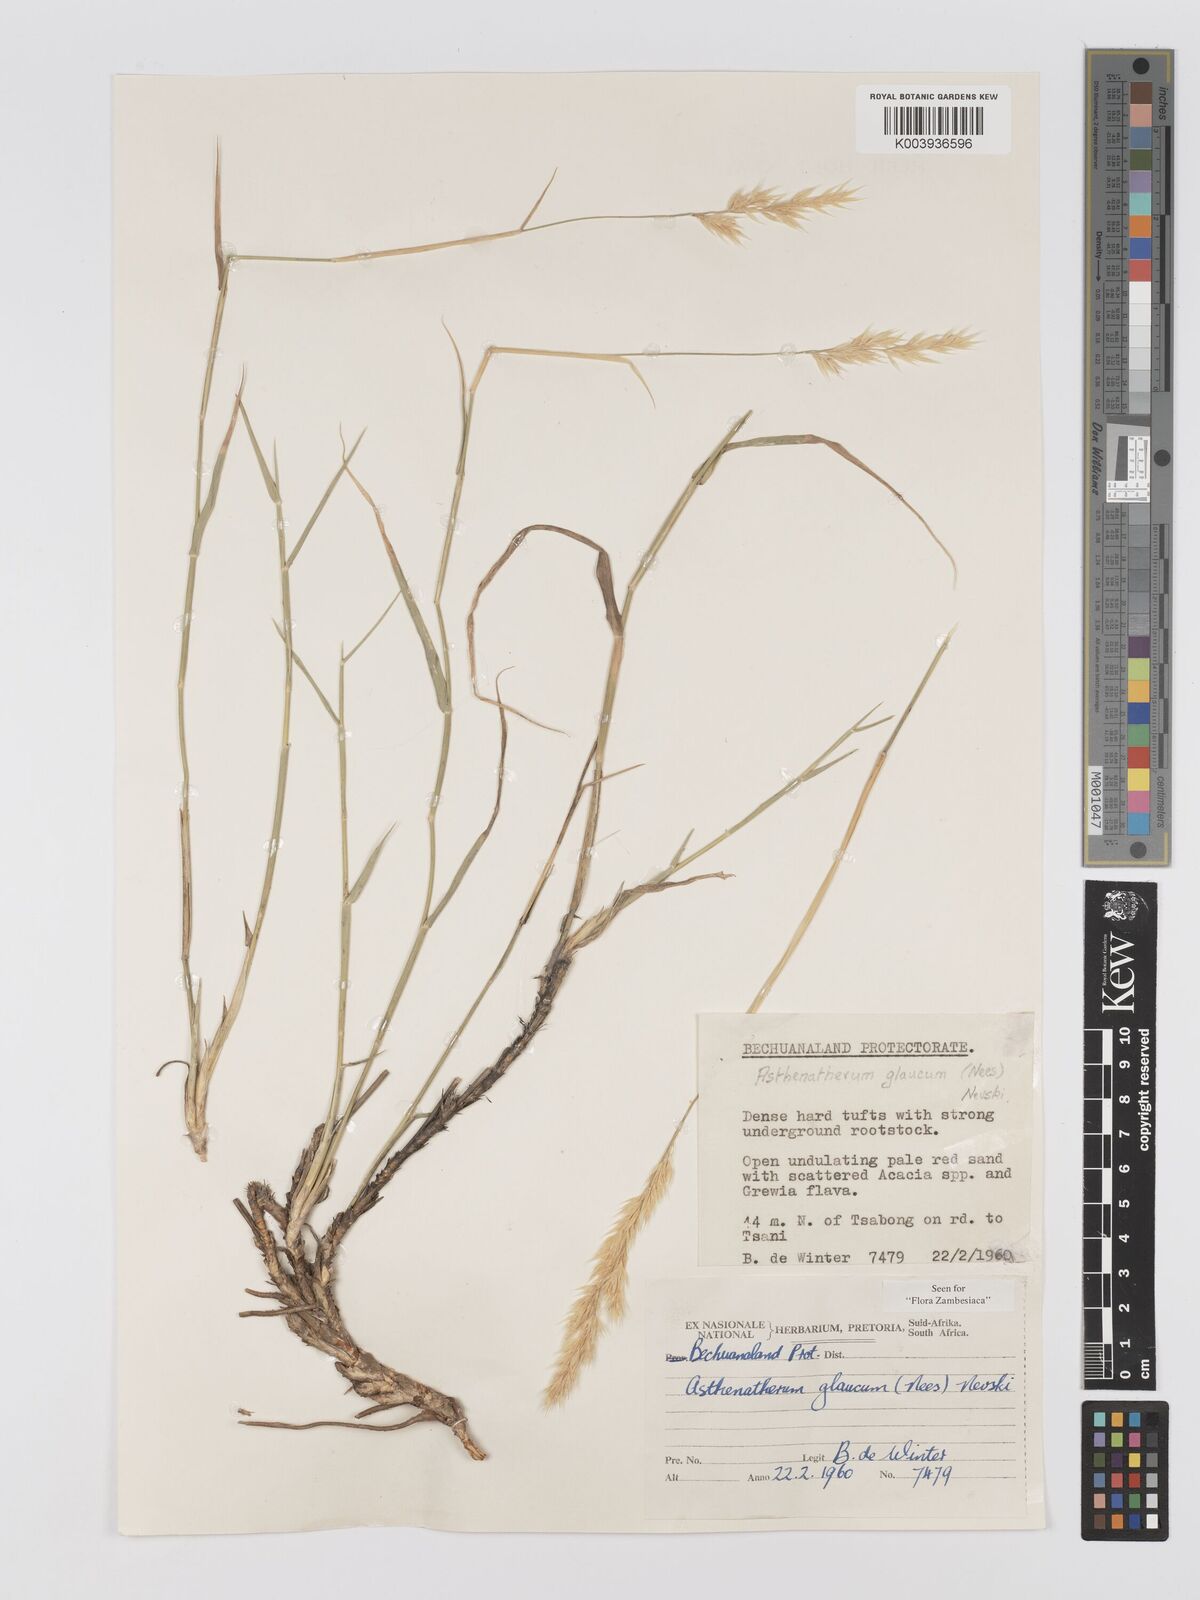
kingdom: Plantae
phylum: Tracheophyta
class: Liliopsida
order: Poales
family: Poaceae
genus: Centropodia
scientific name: Centropodia glauca
